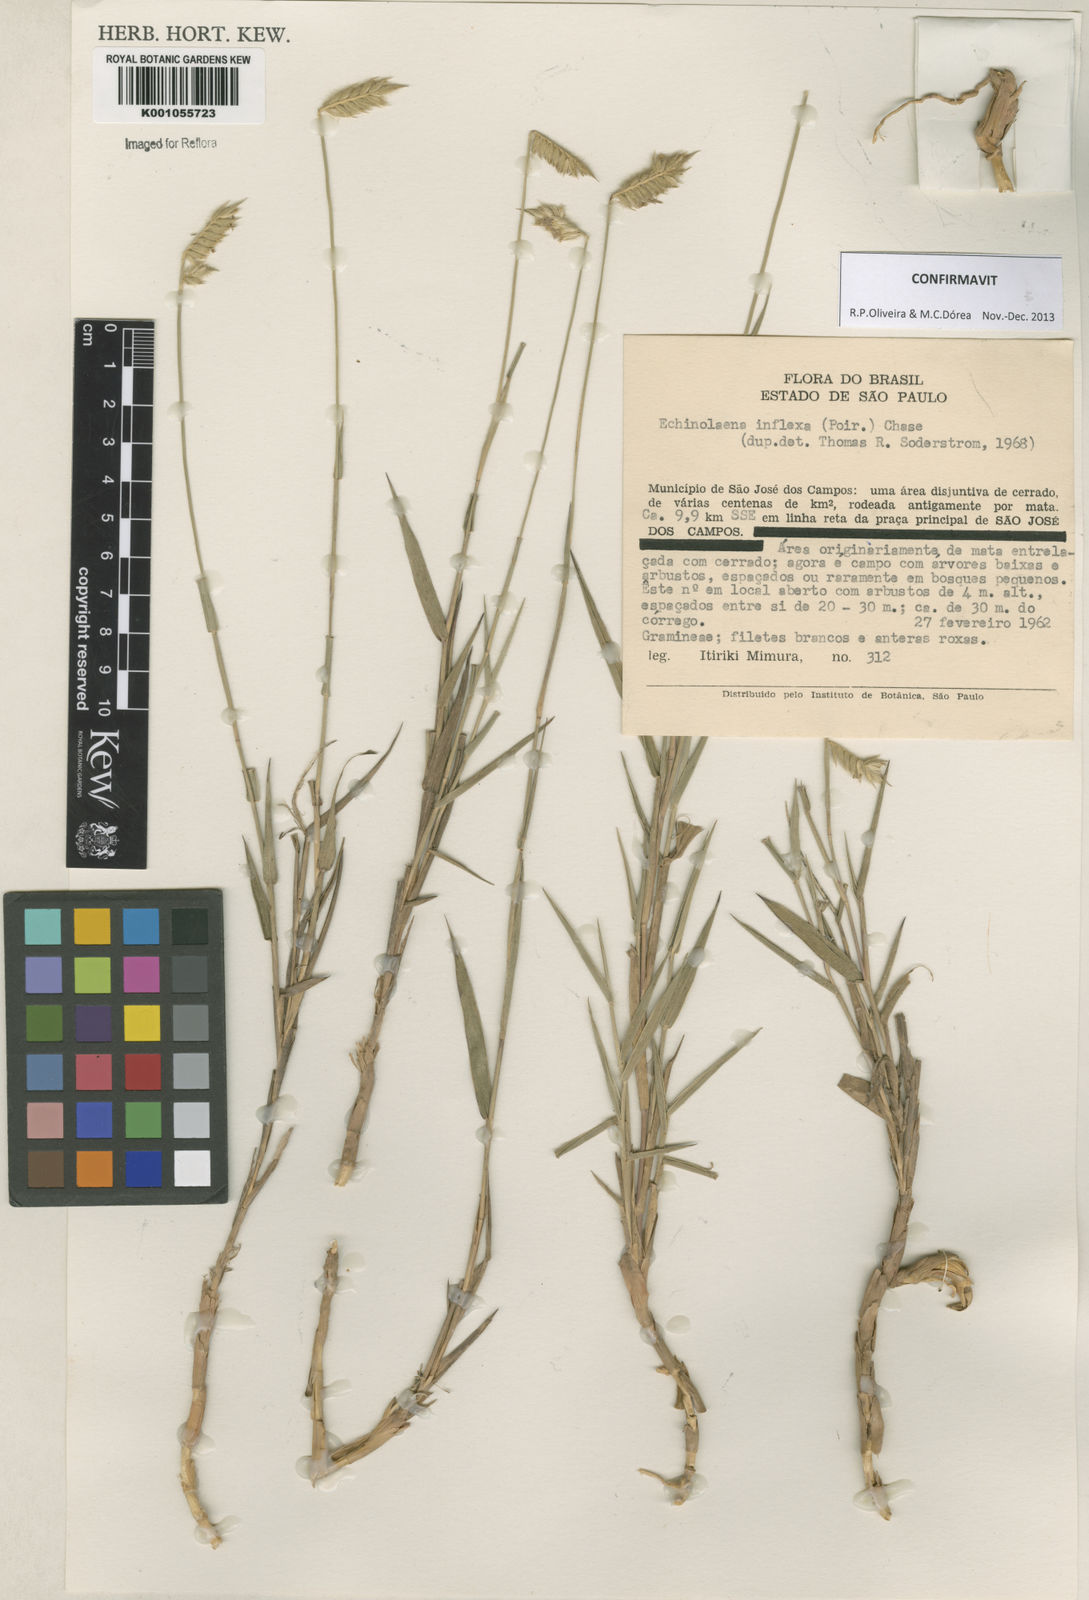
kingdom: Plantae
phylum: Tracheophyta
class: Liliopsida
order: Poales
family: Poaceae
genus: Echinolaena
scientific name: Echinolaena inflexa
